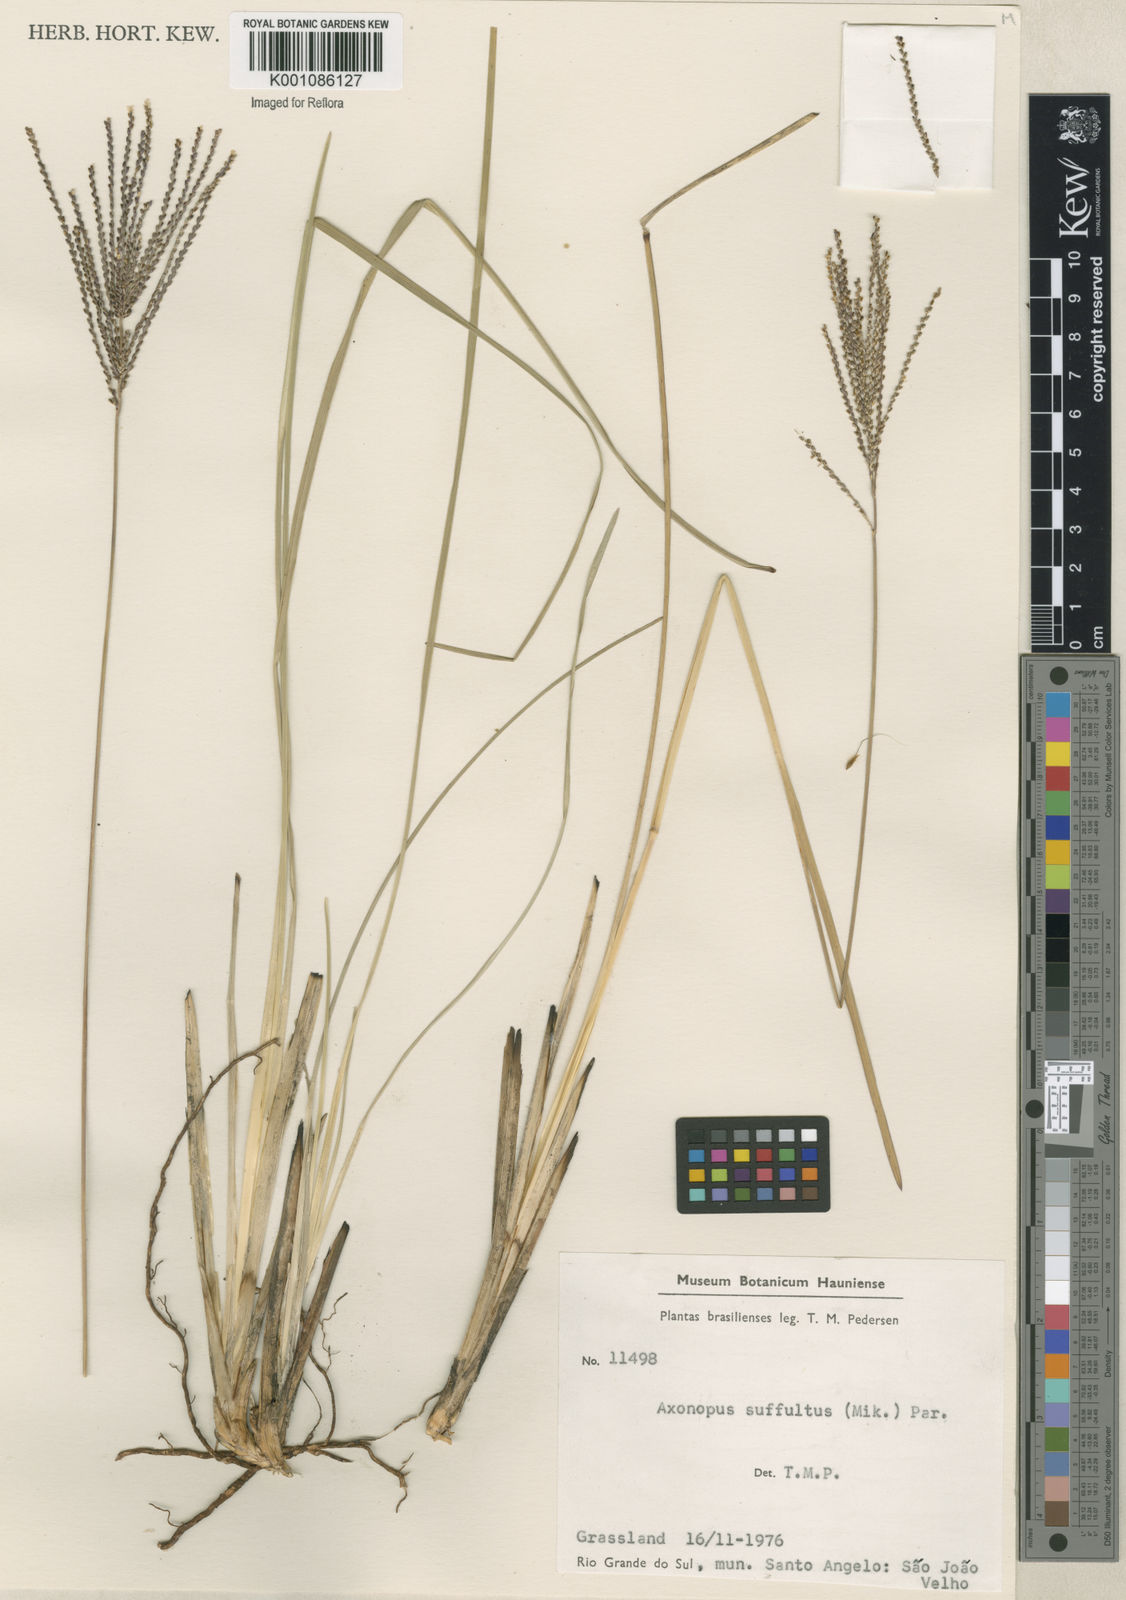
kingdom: Plantae
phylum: Tracheophyta
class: Liliopsida
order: Poales
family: Poaceae
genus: Axonopus
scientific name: Axonopus suffultus
